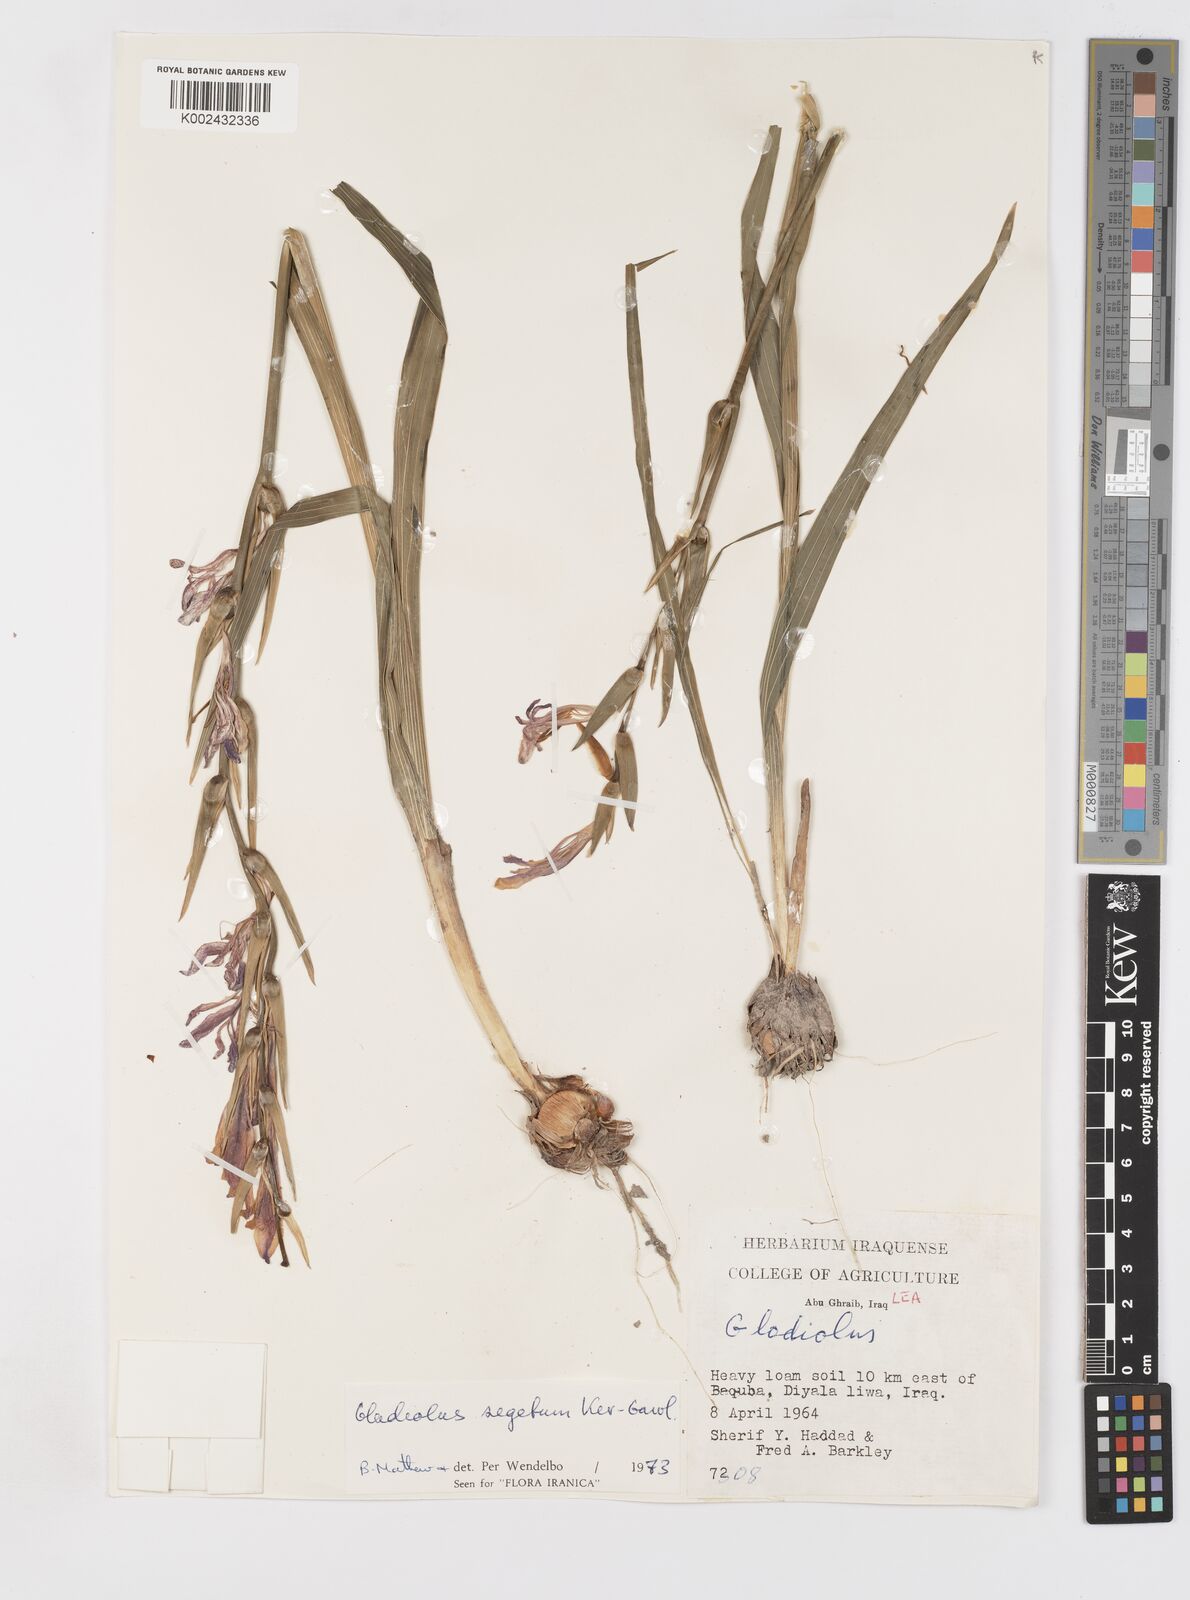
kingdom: Plantae
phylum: Tracheophyta
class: Liliopsida
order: Asparagales
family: Iridaceae
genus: Gladiolus
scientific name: Gladiolus italicus
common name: Field gladiolus
